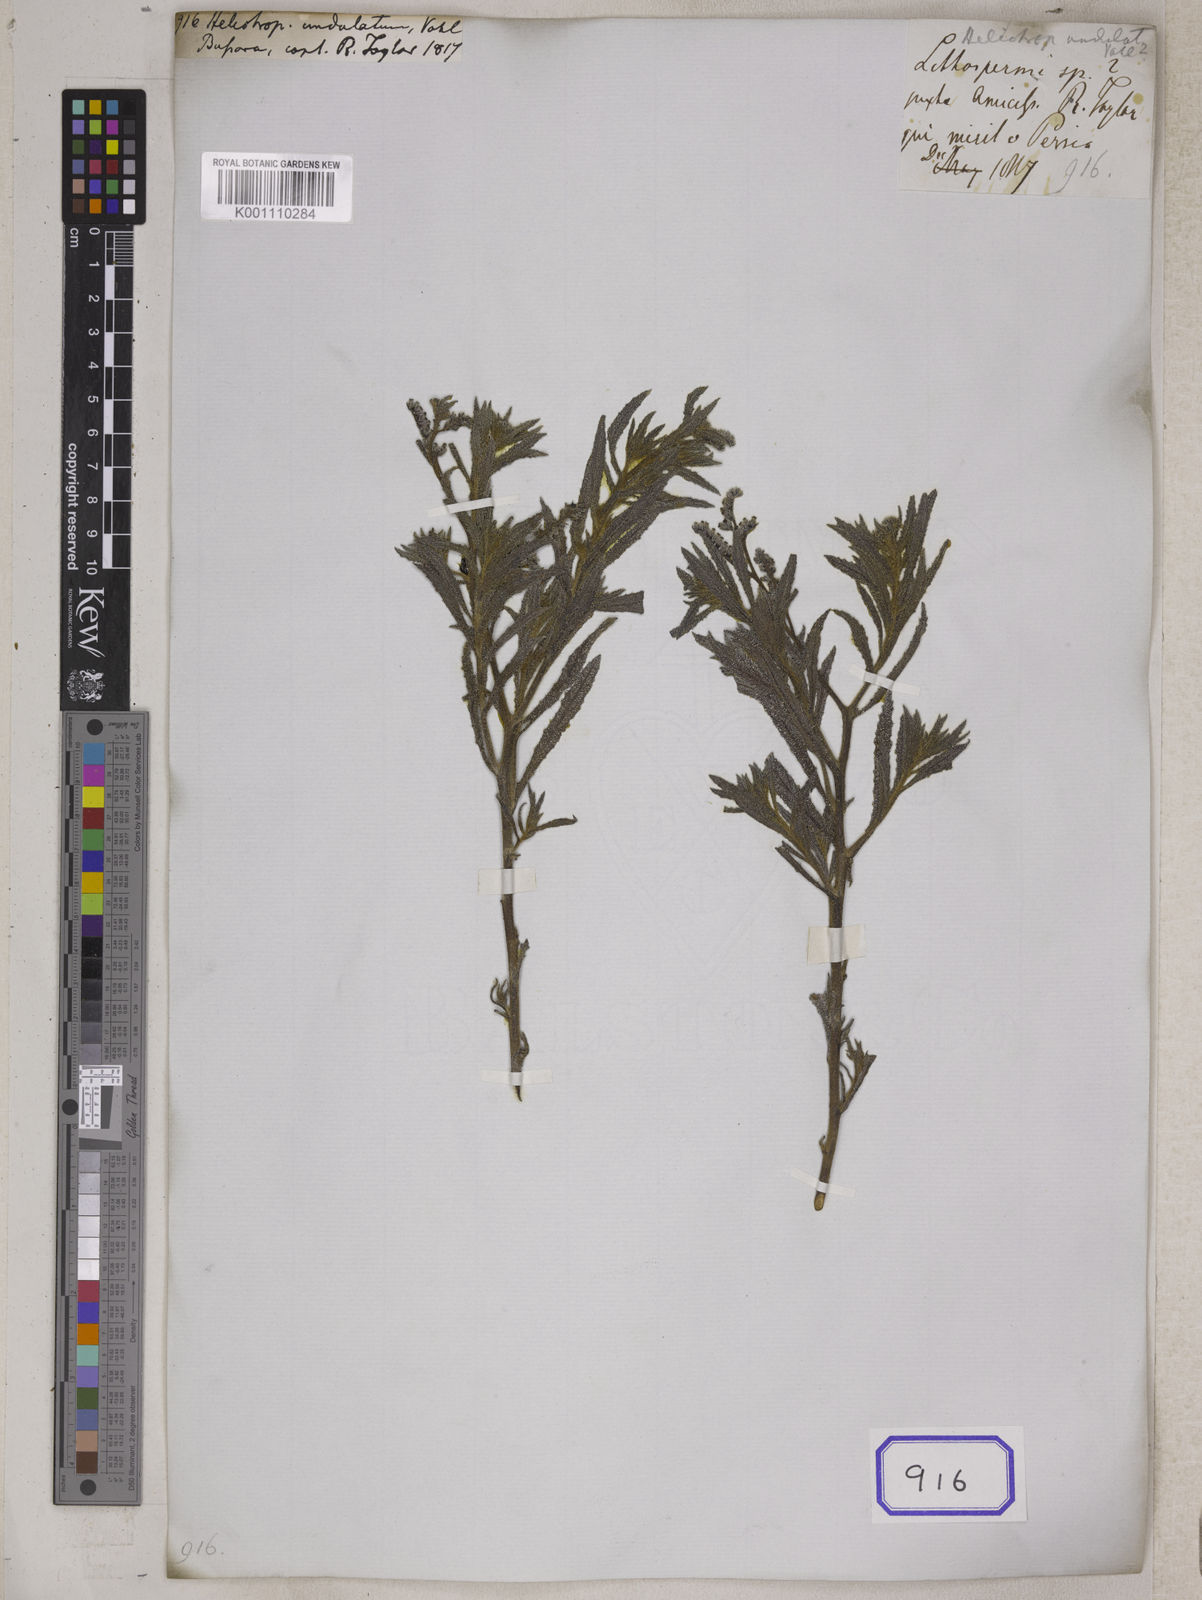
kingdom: Plantae
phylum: Tracheophyta
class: Magnoliopsida
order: Boraginales
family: Heliotropiaceae
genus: Heliotropium
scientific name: Heliotropium bacciferum
